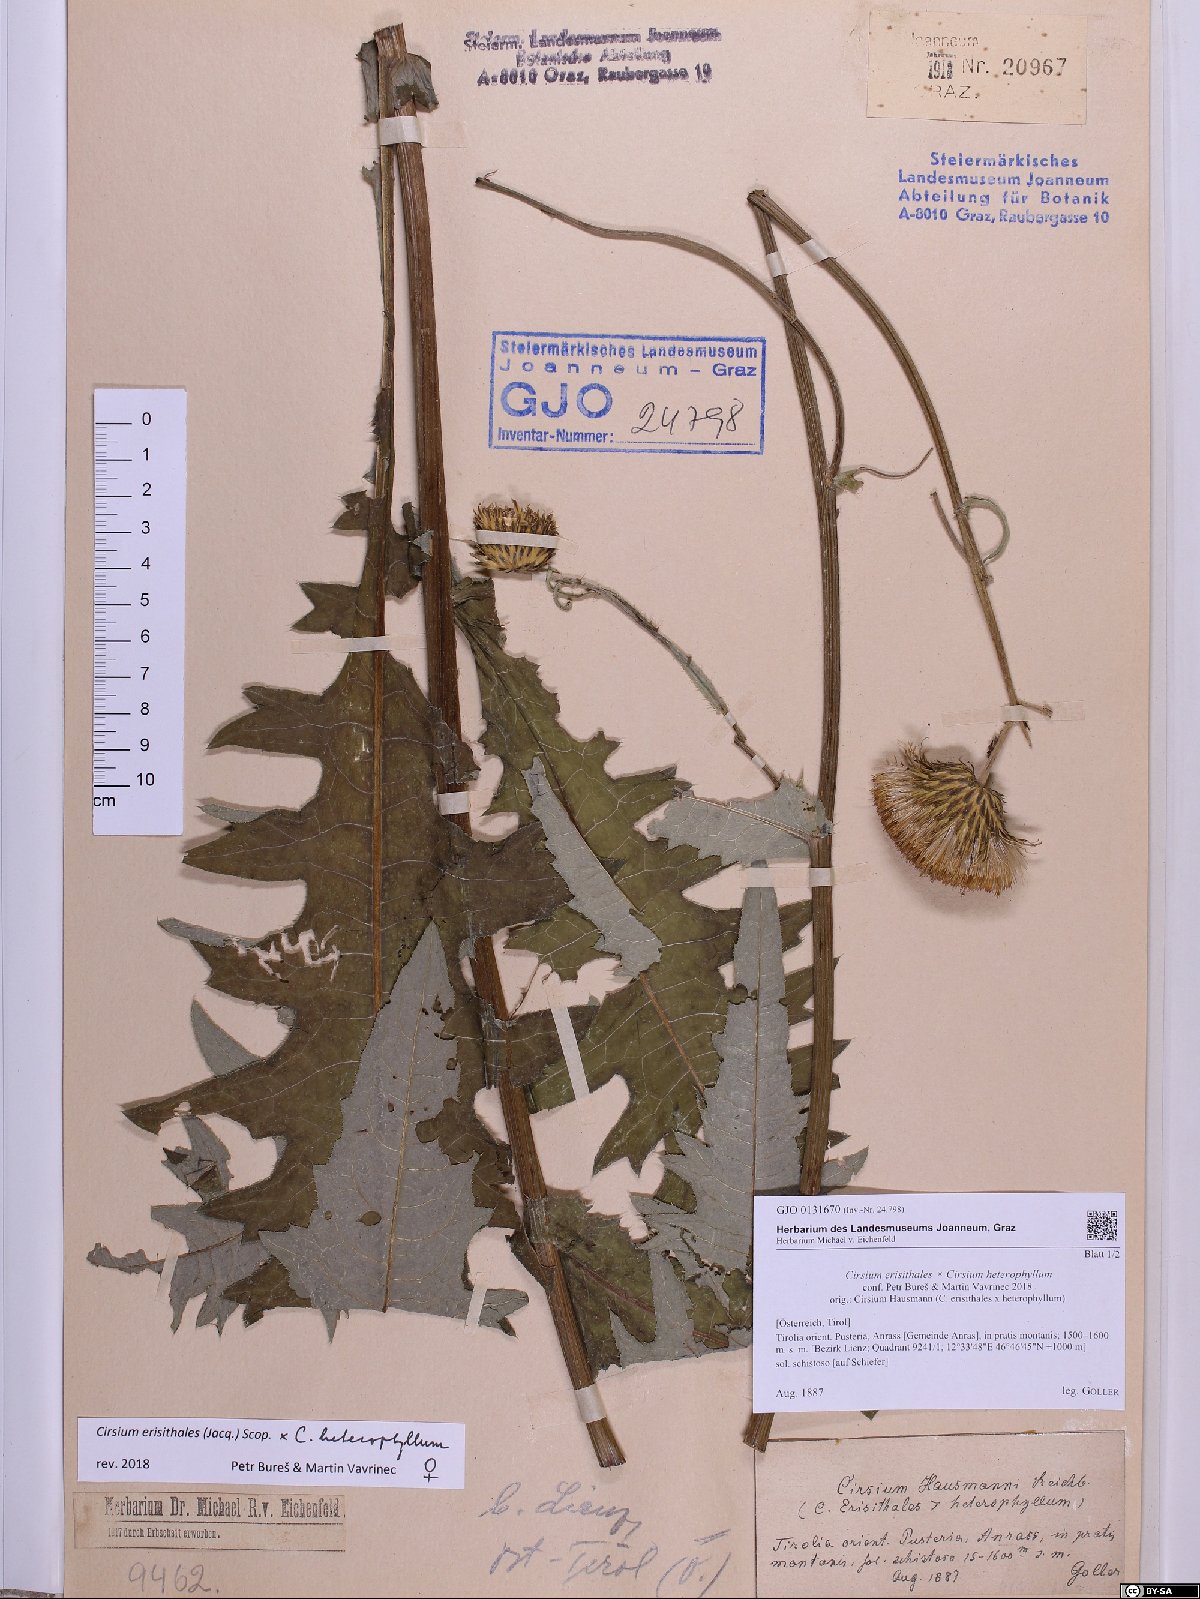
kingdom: Plantae
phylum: Tracheophyta
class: Magnoliopsida
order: Asterales
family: Asteraceae
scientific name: Asteraceae
